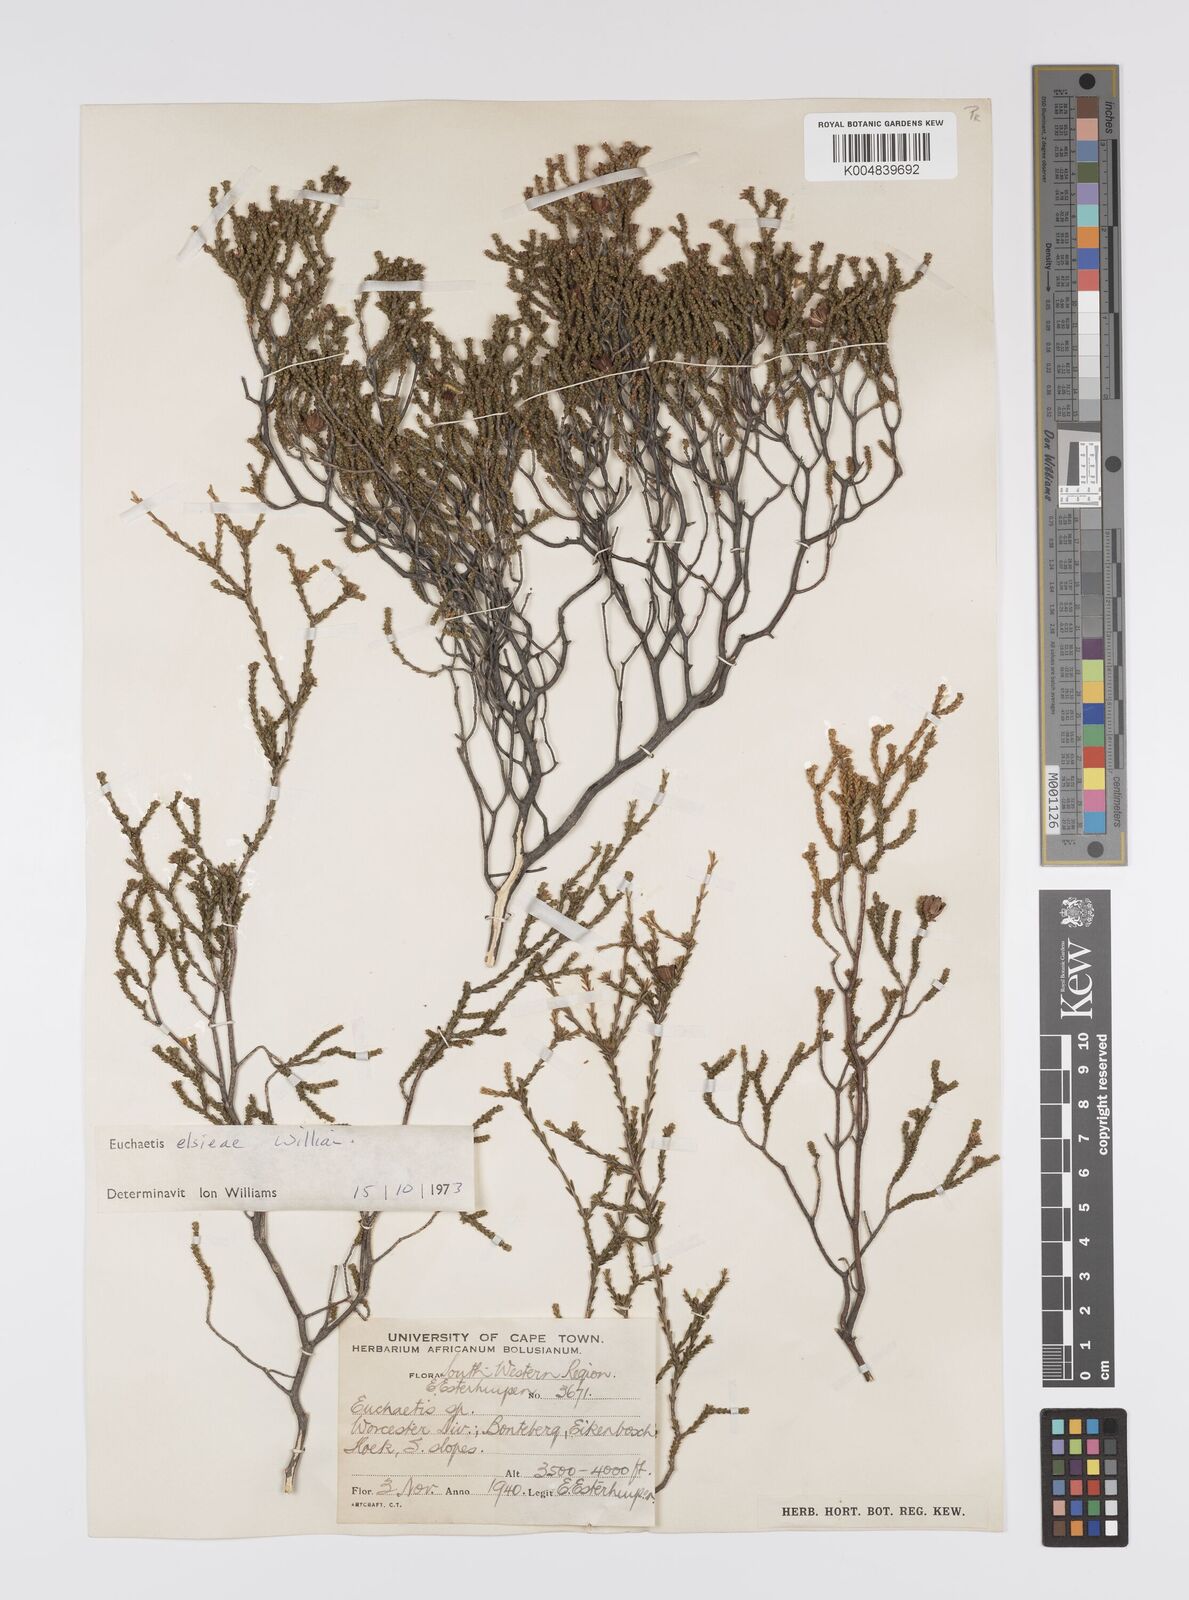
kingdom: Plantae
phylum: Tracheophyta
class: Magnoliopsida
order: Sapindales
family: Rutaceae
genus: Euchaetis
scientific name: Euchaetis elsieae
